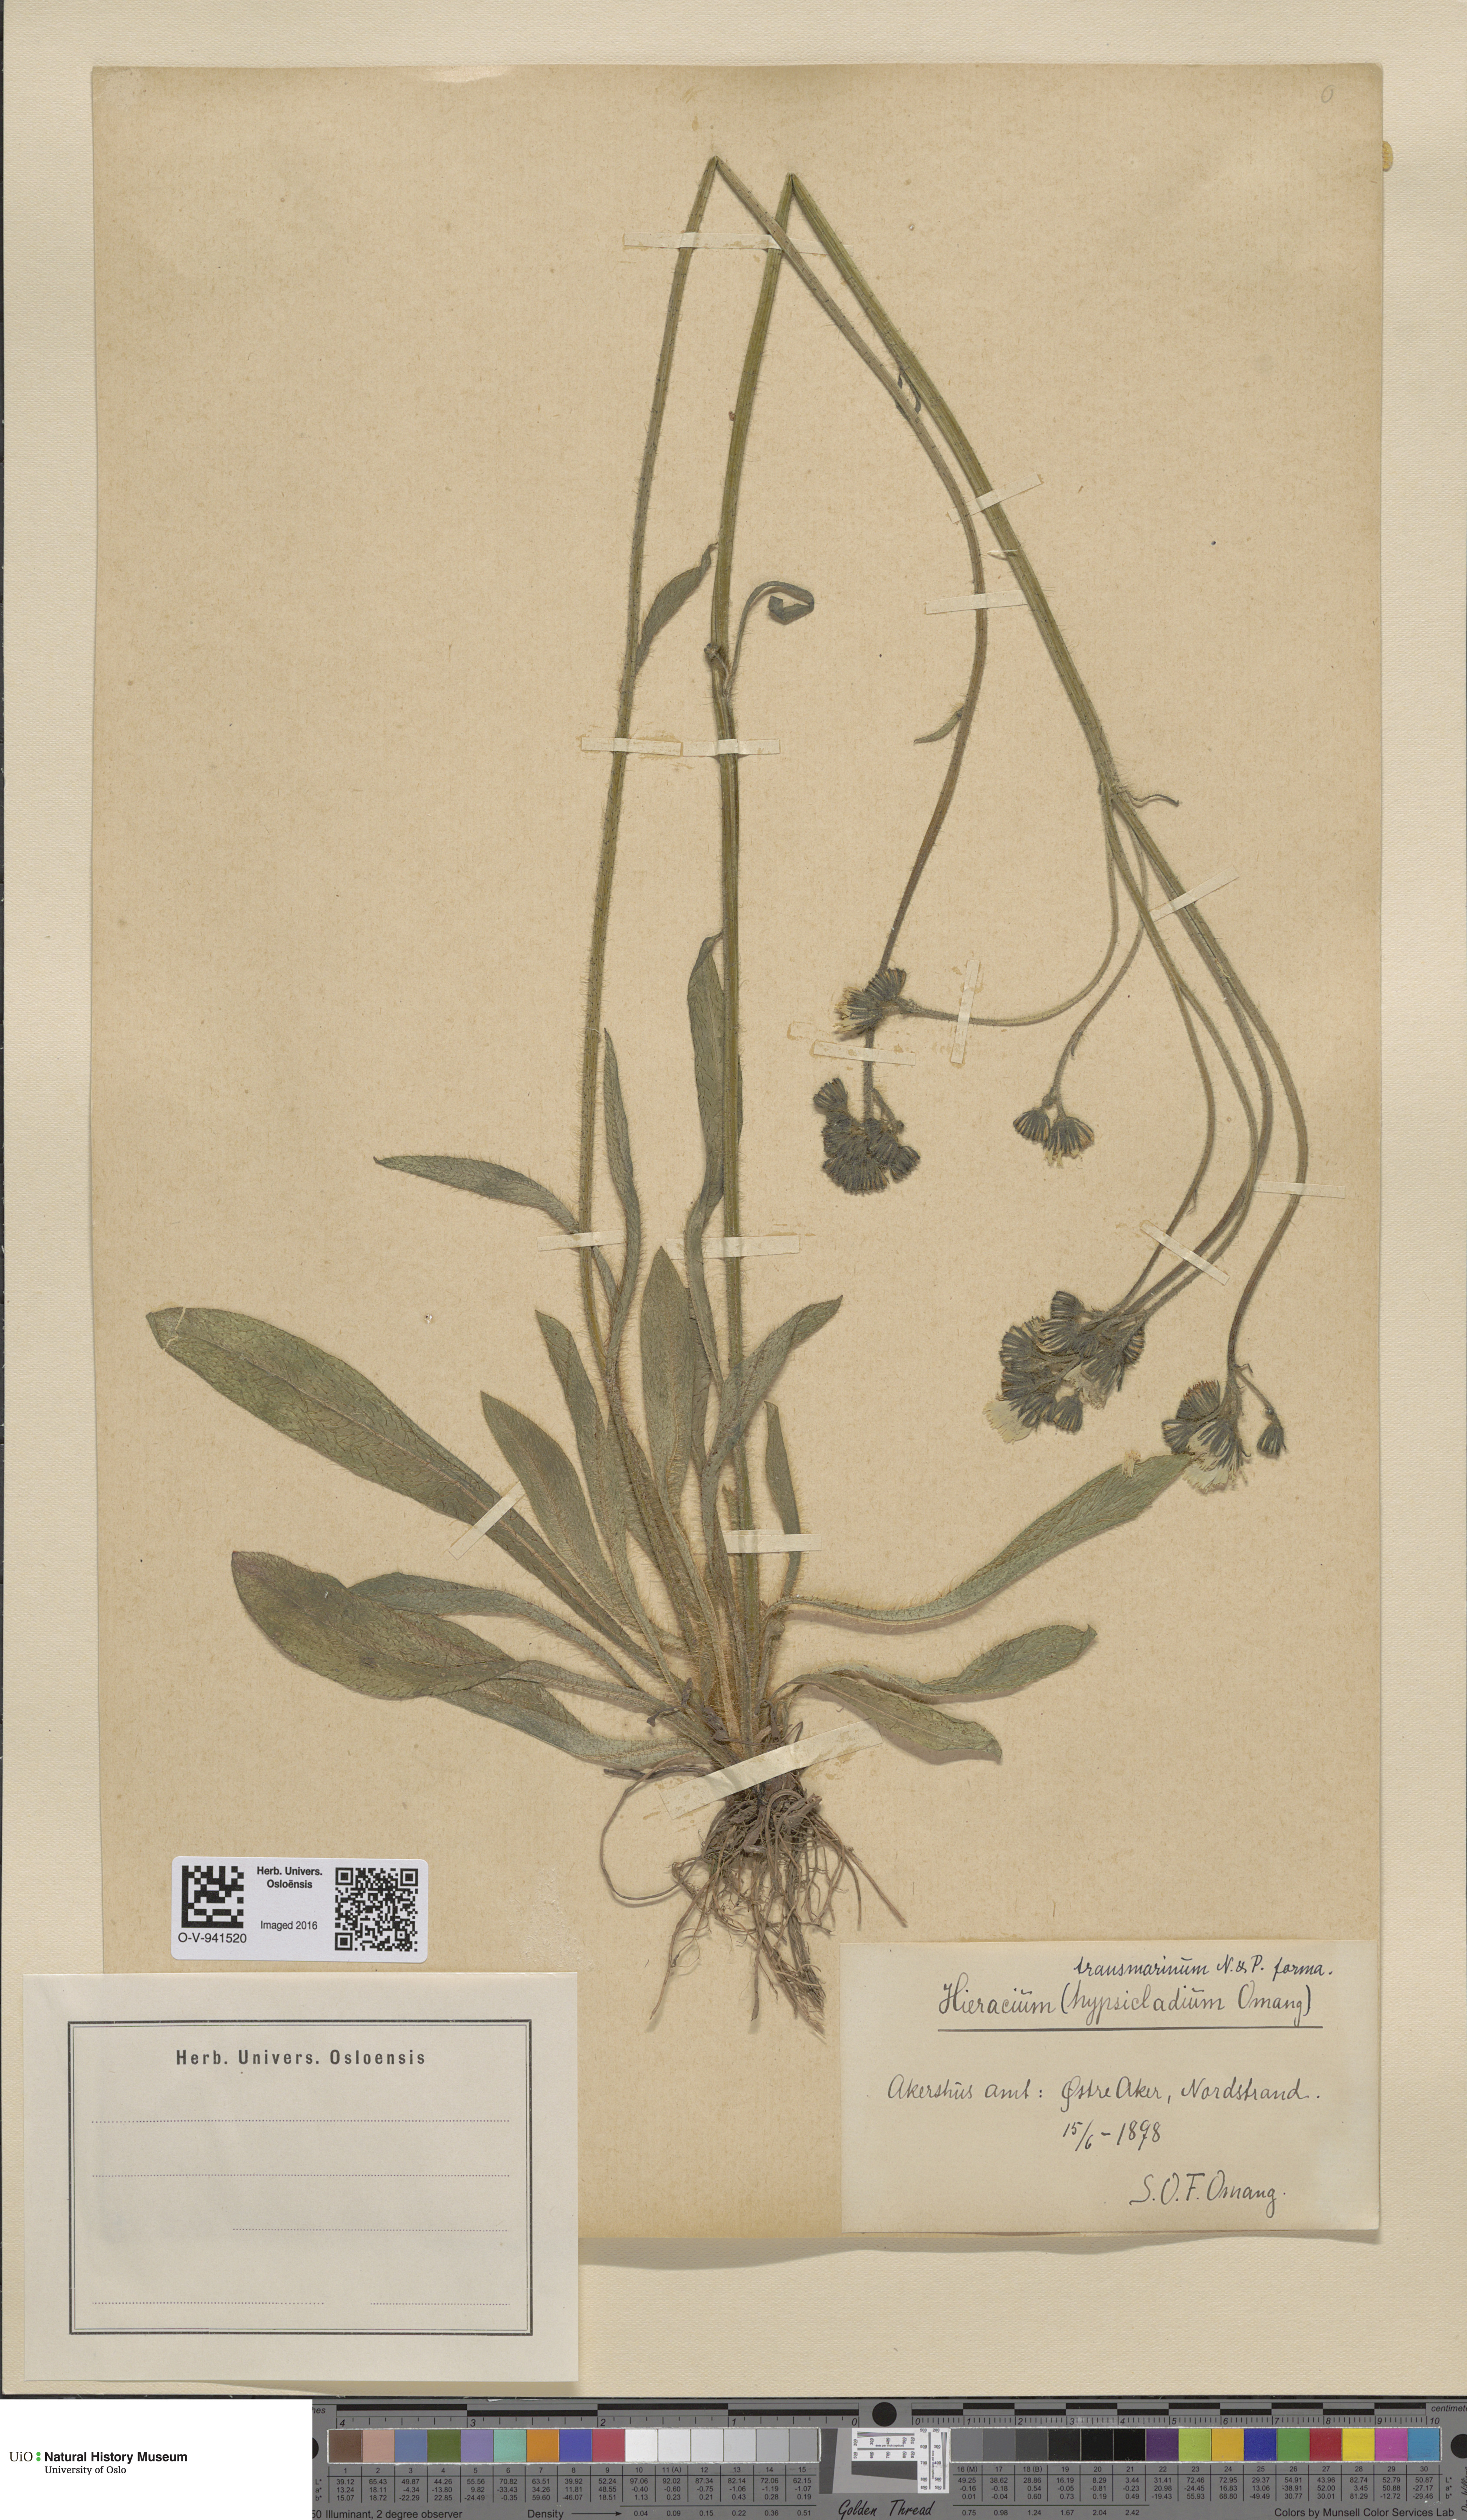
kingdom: Plantae
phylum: Tracheophyta
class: Magnoliopsida
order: Asterales
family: Asteraceae
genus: Pilosella
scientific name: Pilosella cymosa
